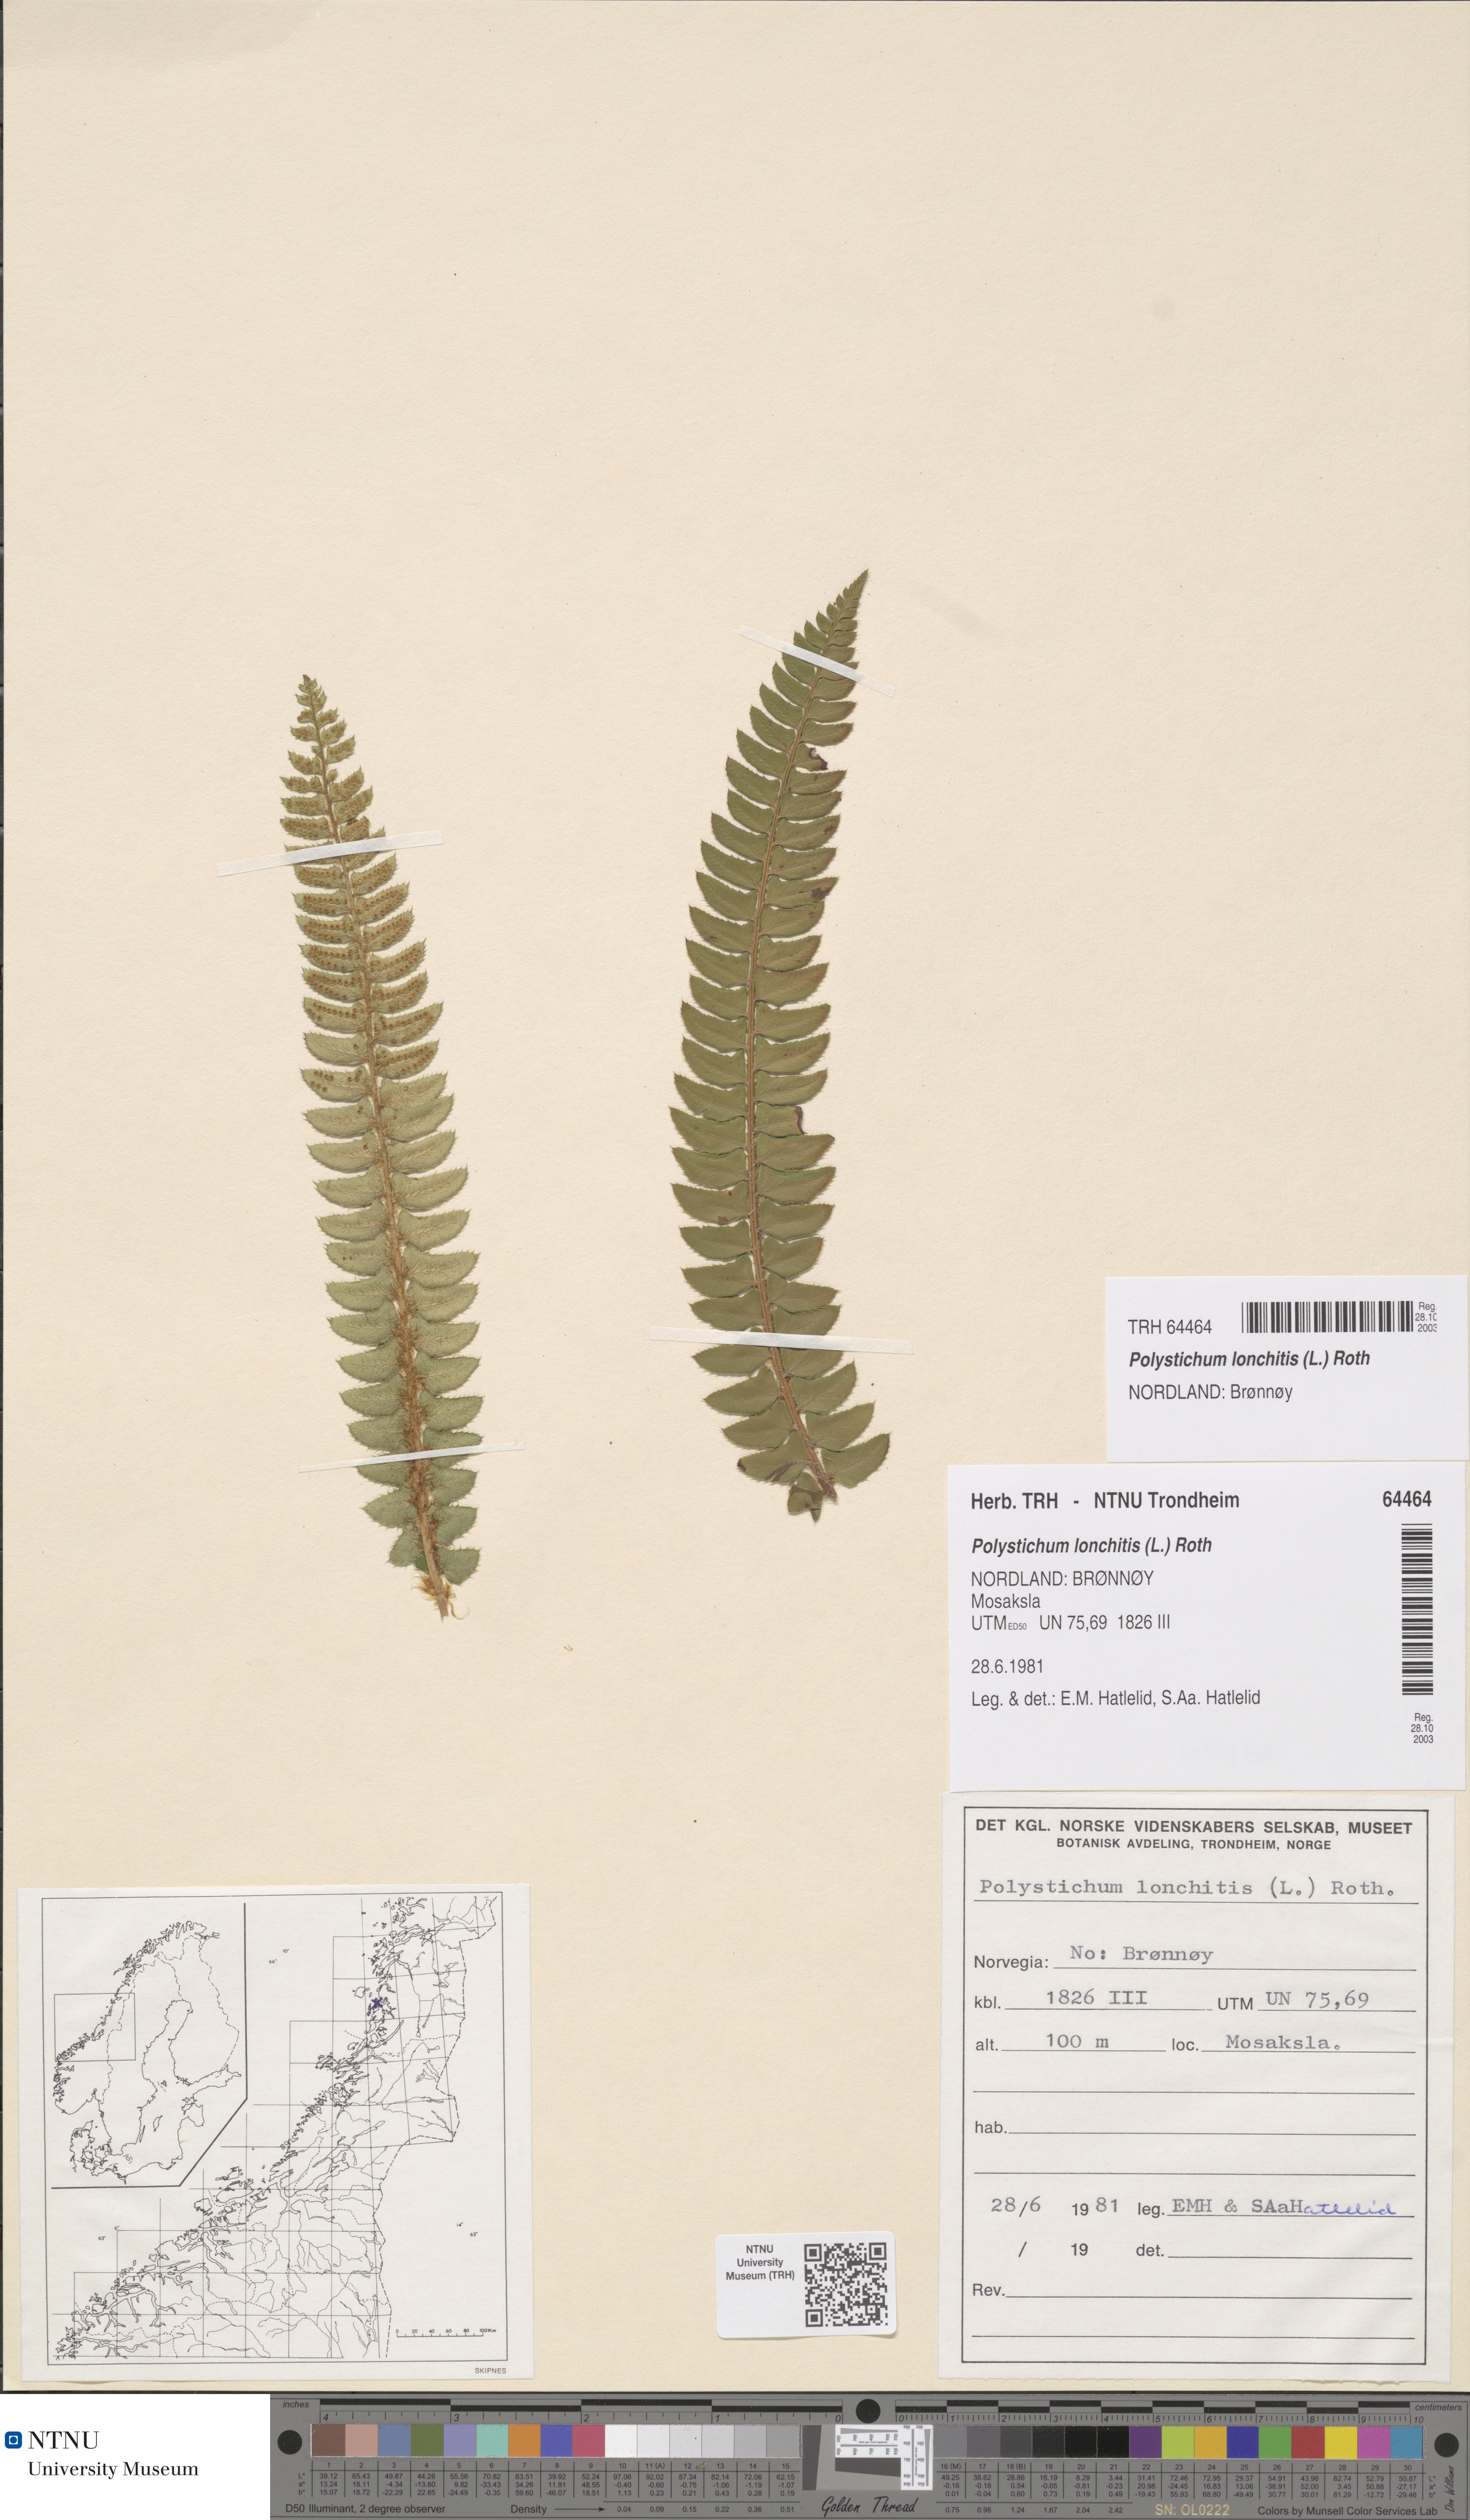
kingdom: Plantae
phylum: Tracheophyta
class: Polypodiopsida
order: Polypodiales
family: Dryopteridaceae
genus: Polystichum
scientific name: Polystichum lonchitis
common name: Holly fern
